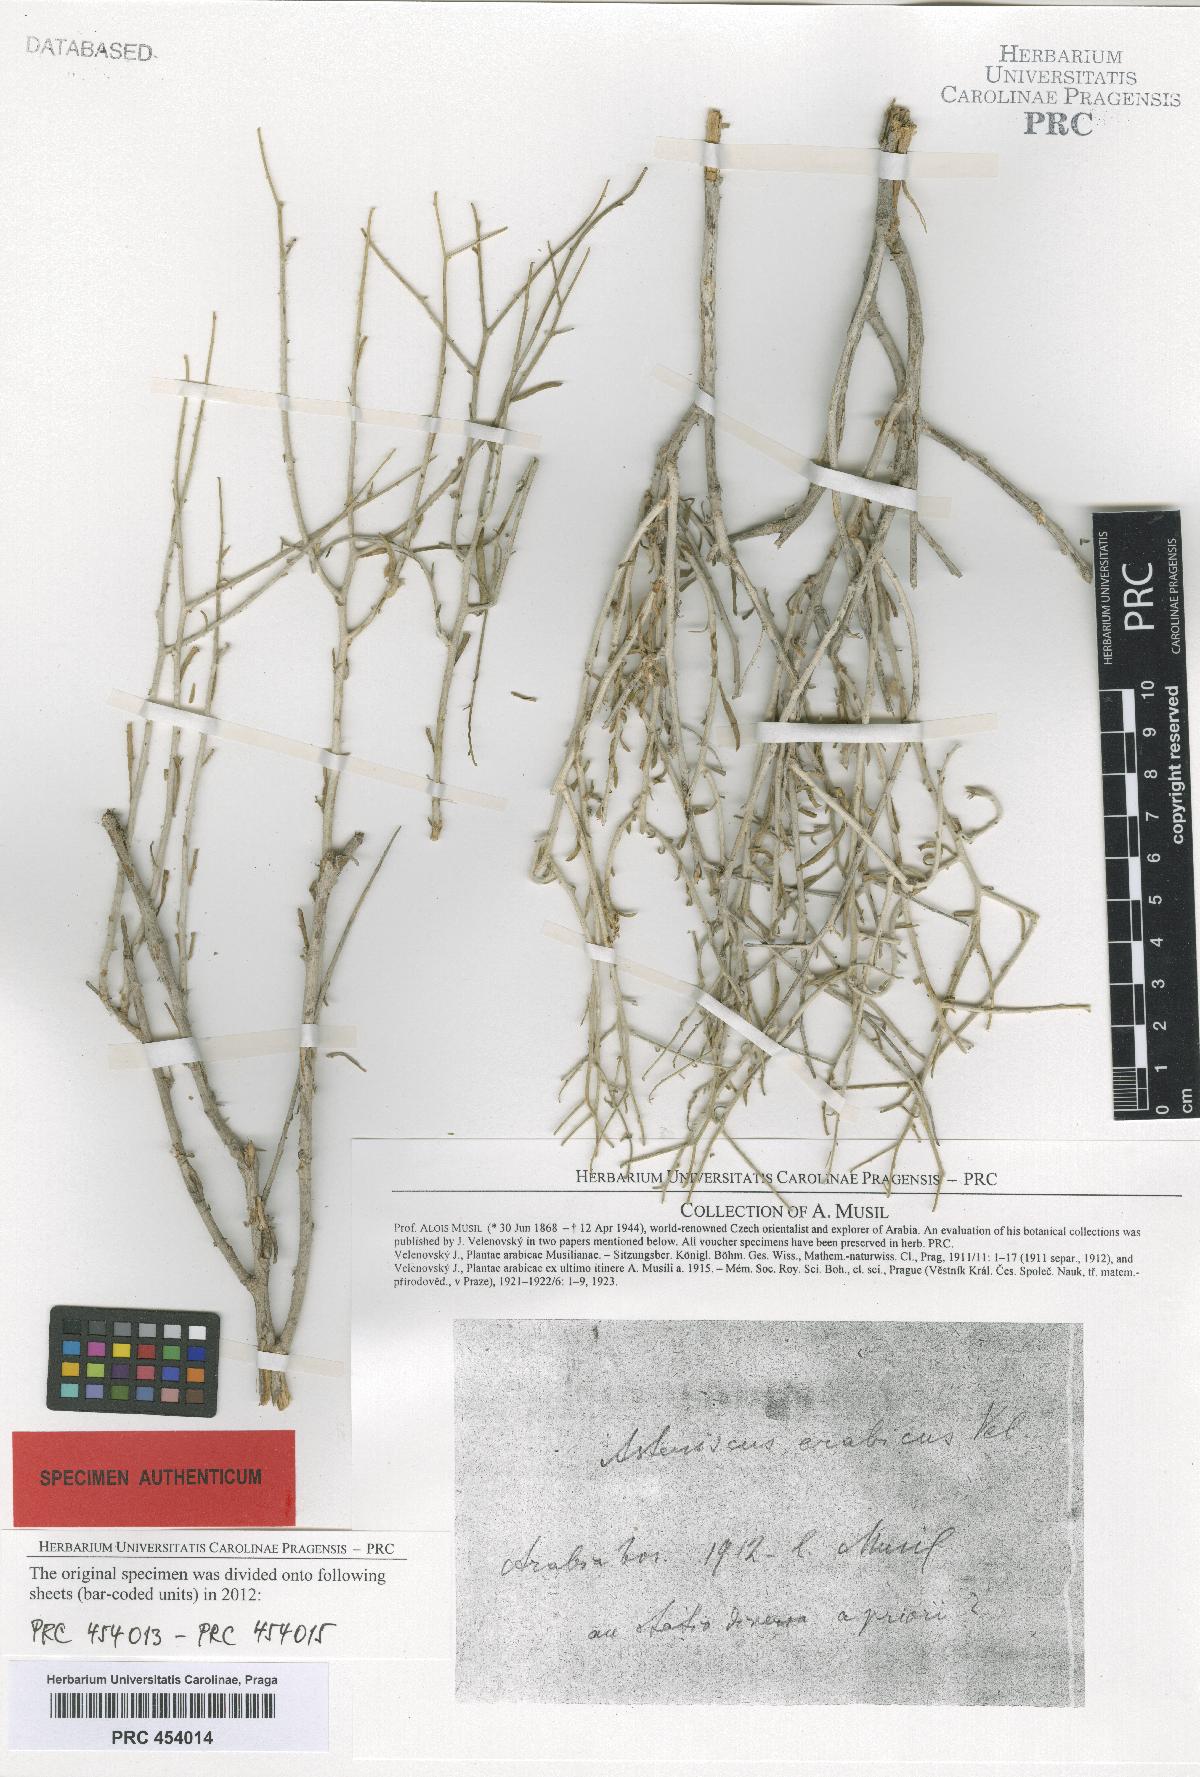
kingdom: Plantae
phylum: Tracheophyta
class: Magnoliopsida
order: Asterales
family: Asteraceae
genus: Rhanterium
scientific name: Rhanterium epapposum
